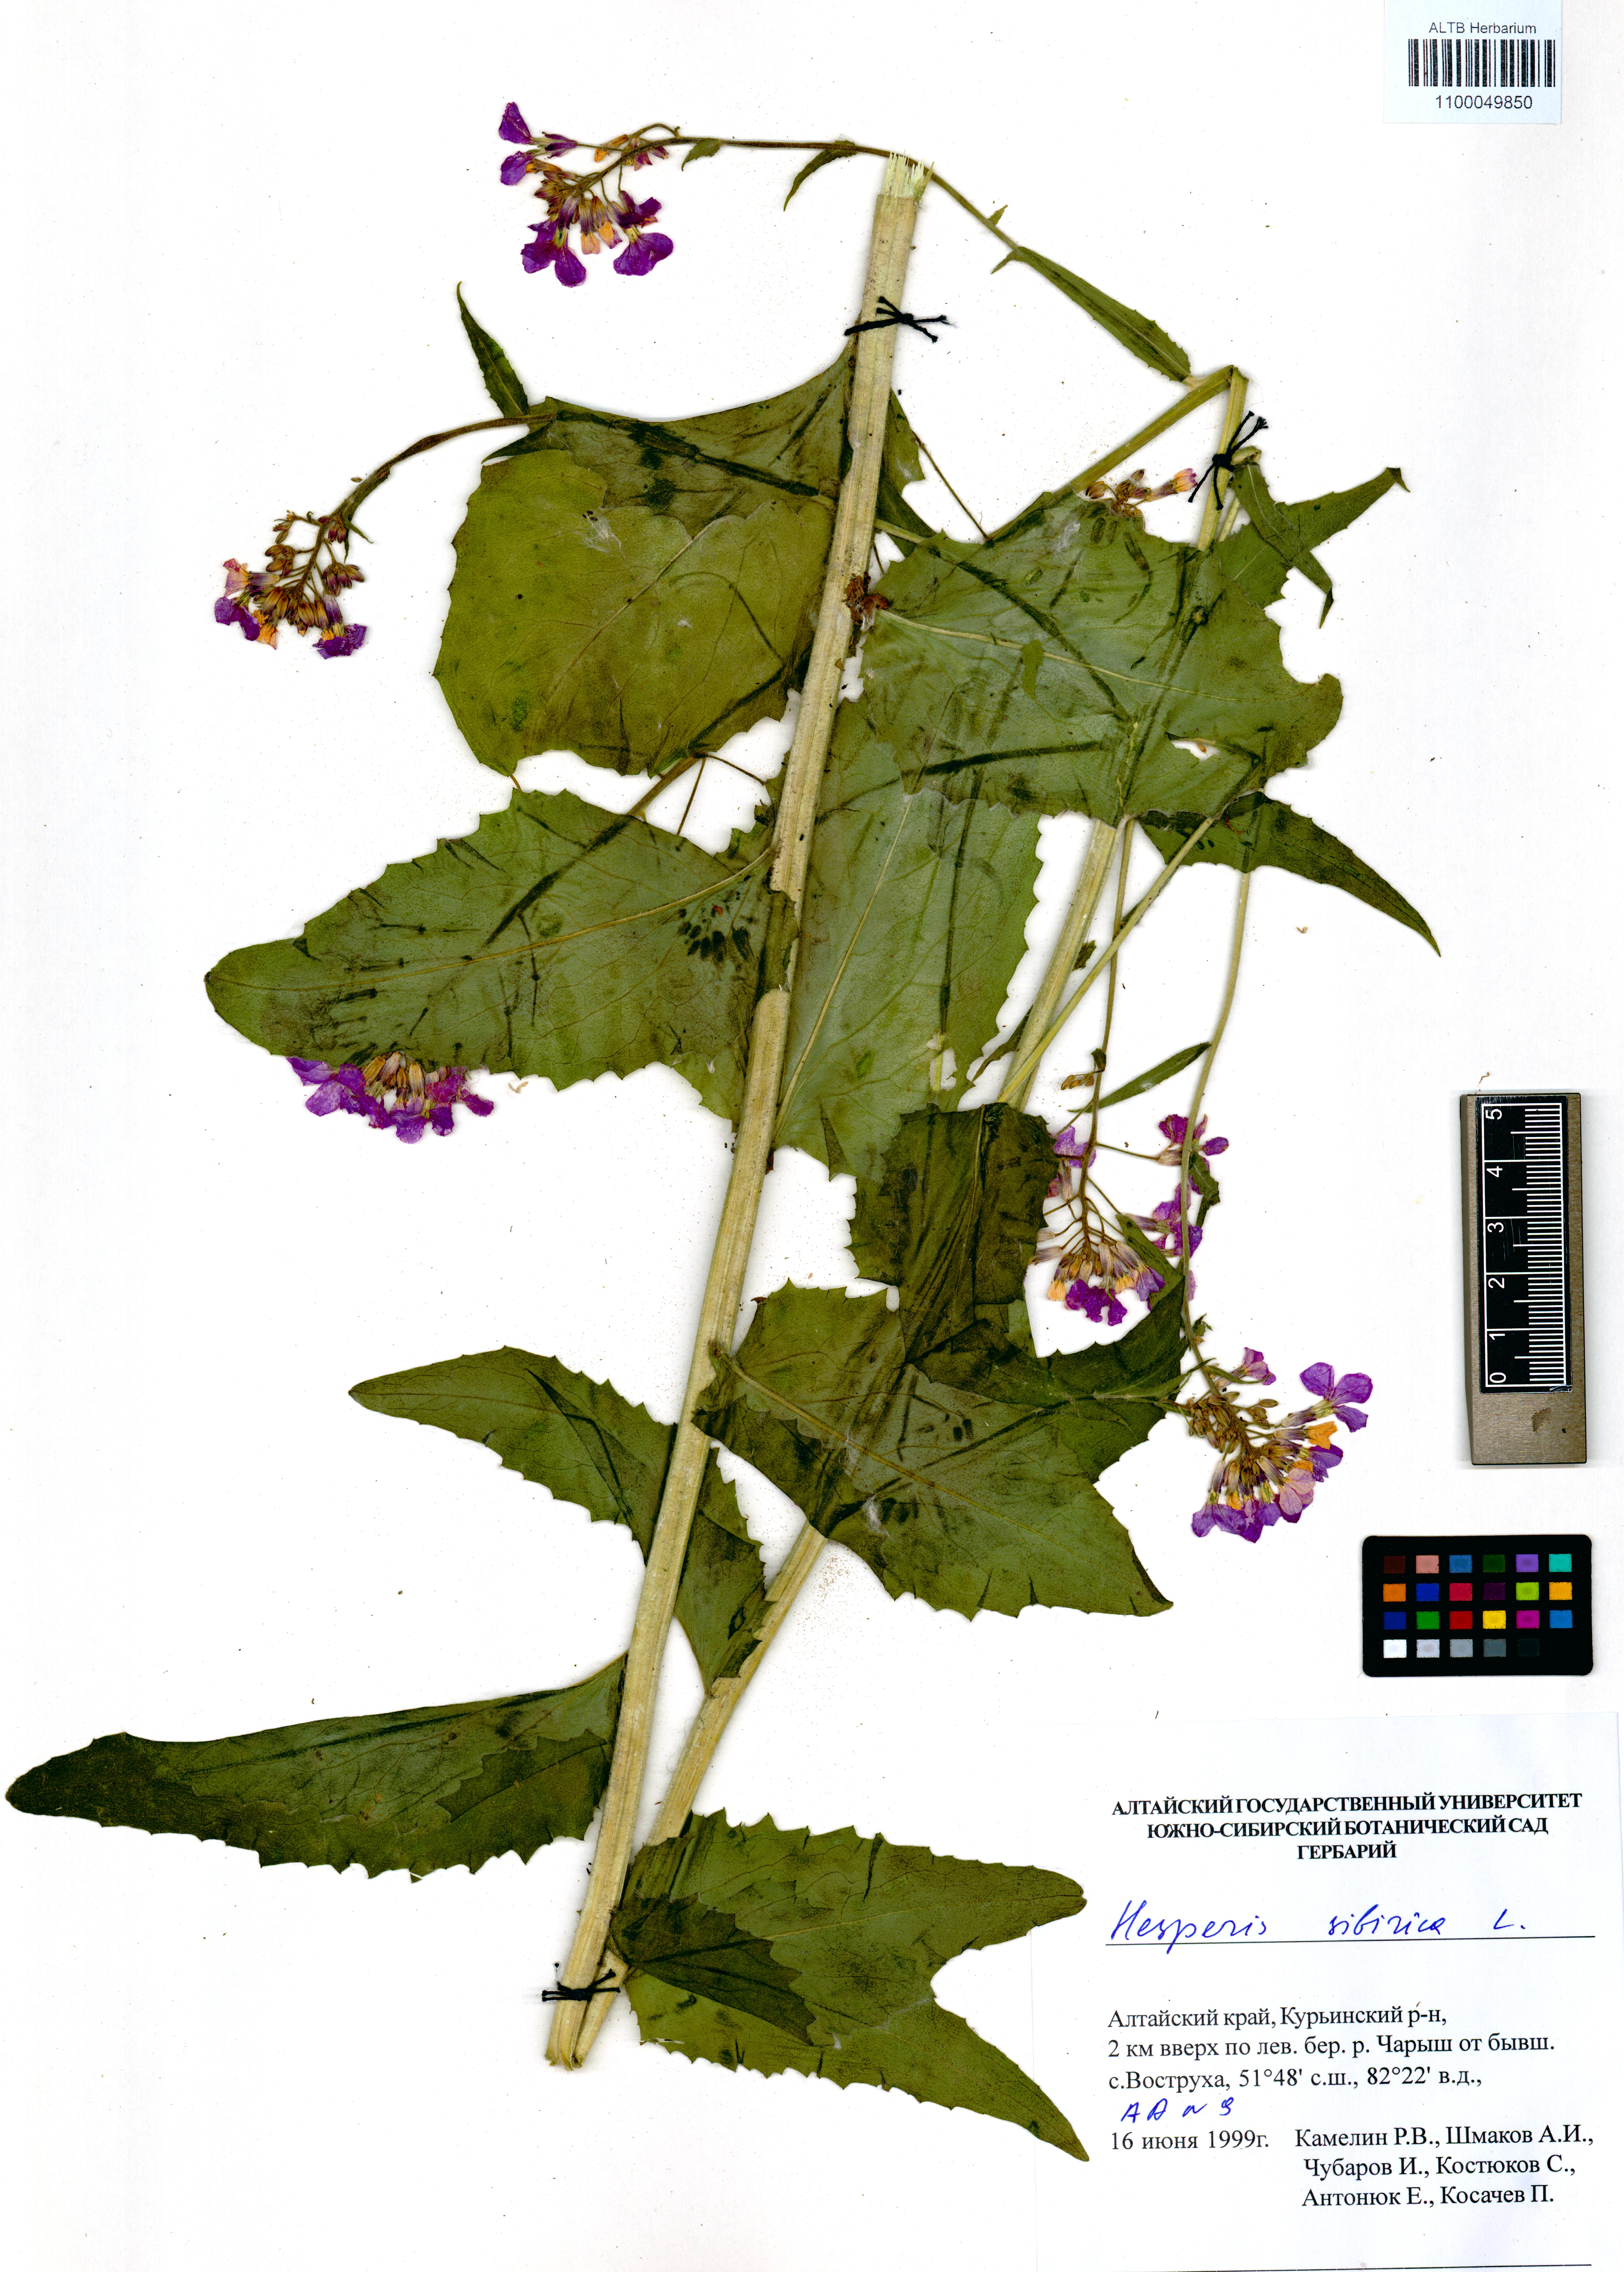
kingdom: Plantae
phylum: Tracheophyta
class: Magnoliopsida
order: Brassicales
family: Brassicaceae
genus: Hesperis
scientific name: Hesperis sibirica
